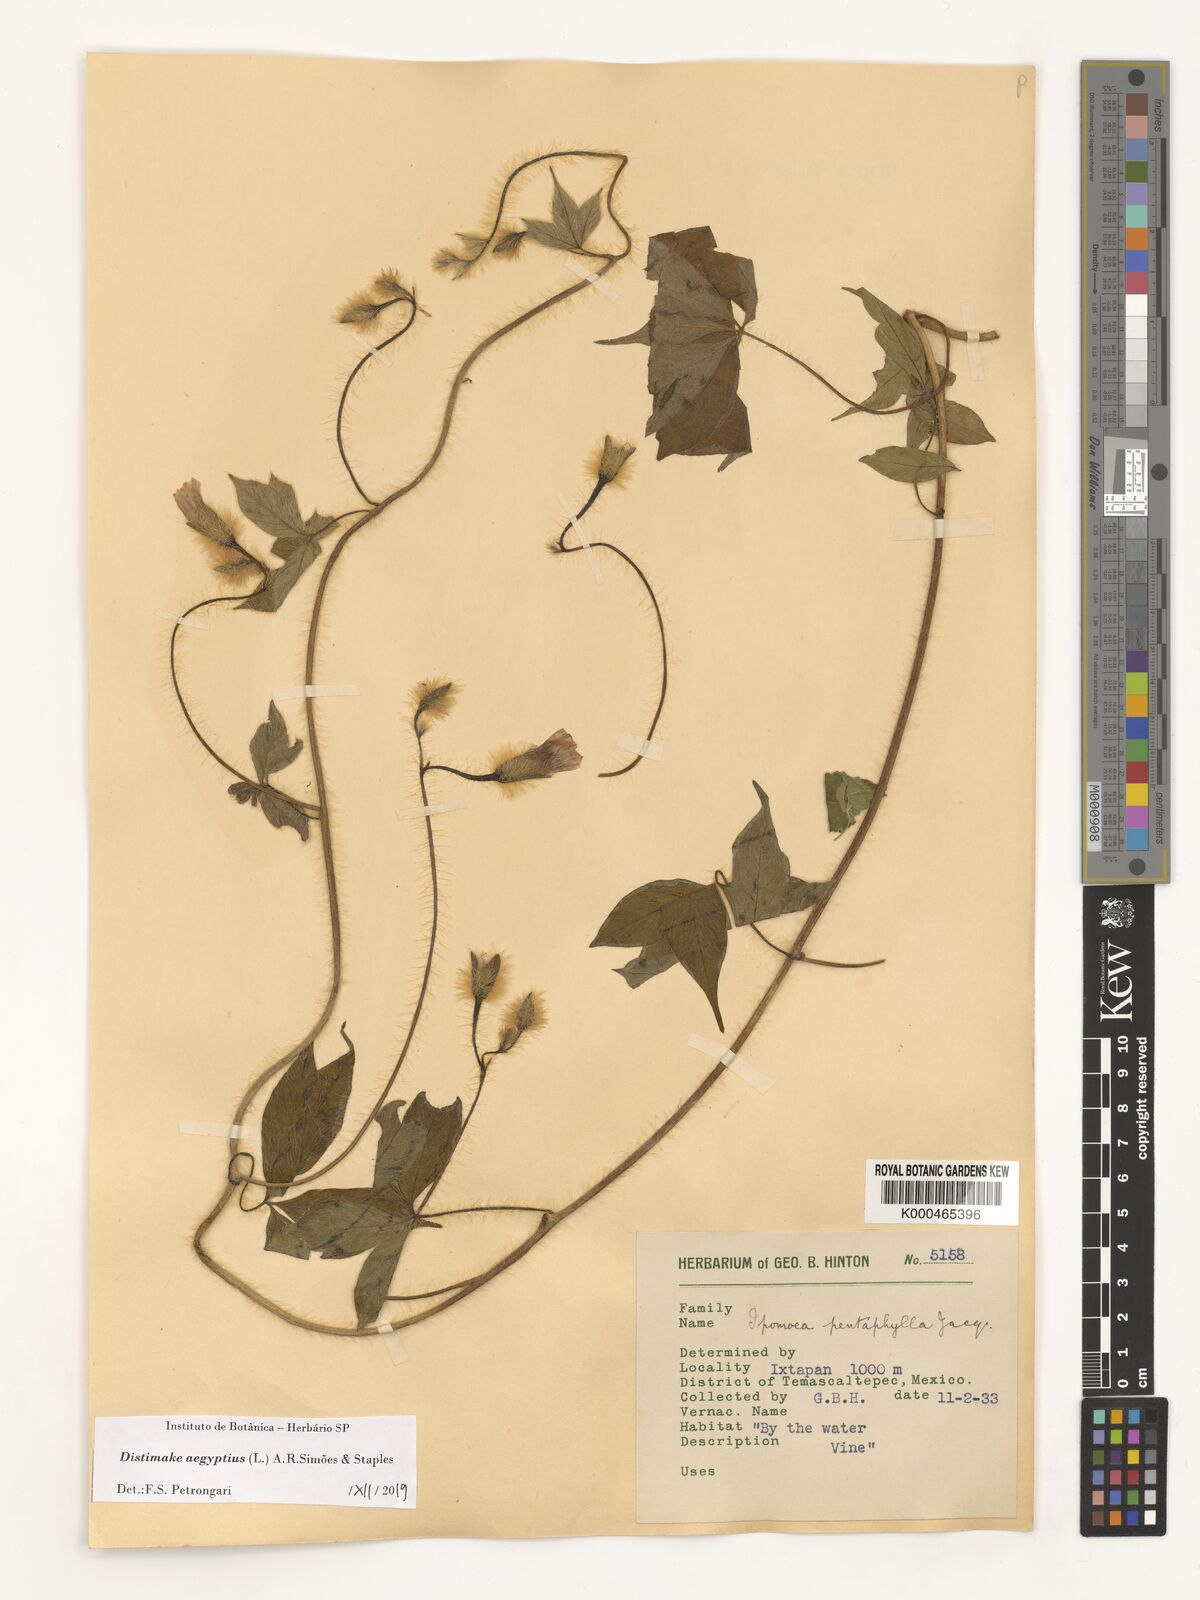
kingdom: Plantae
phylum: Tracheophyta
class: Magnoliopsida
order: Solanales
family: Convolvulaceae
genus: Distimake
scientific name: Distimake aegyptius
